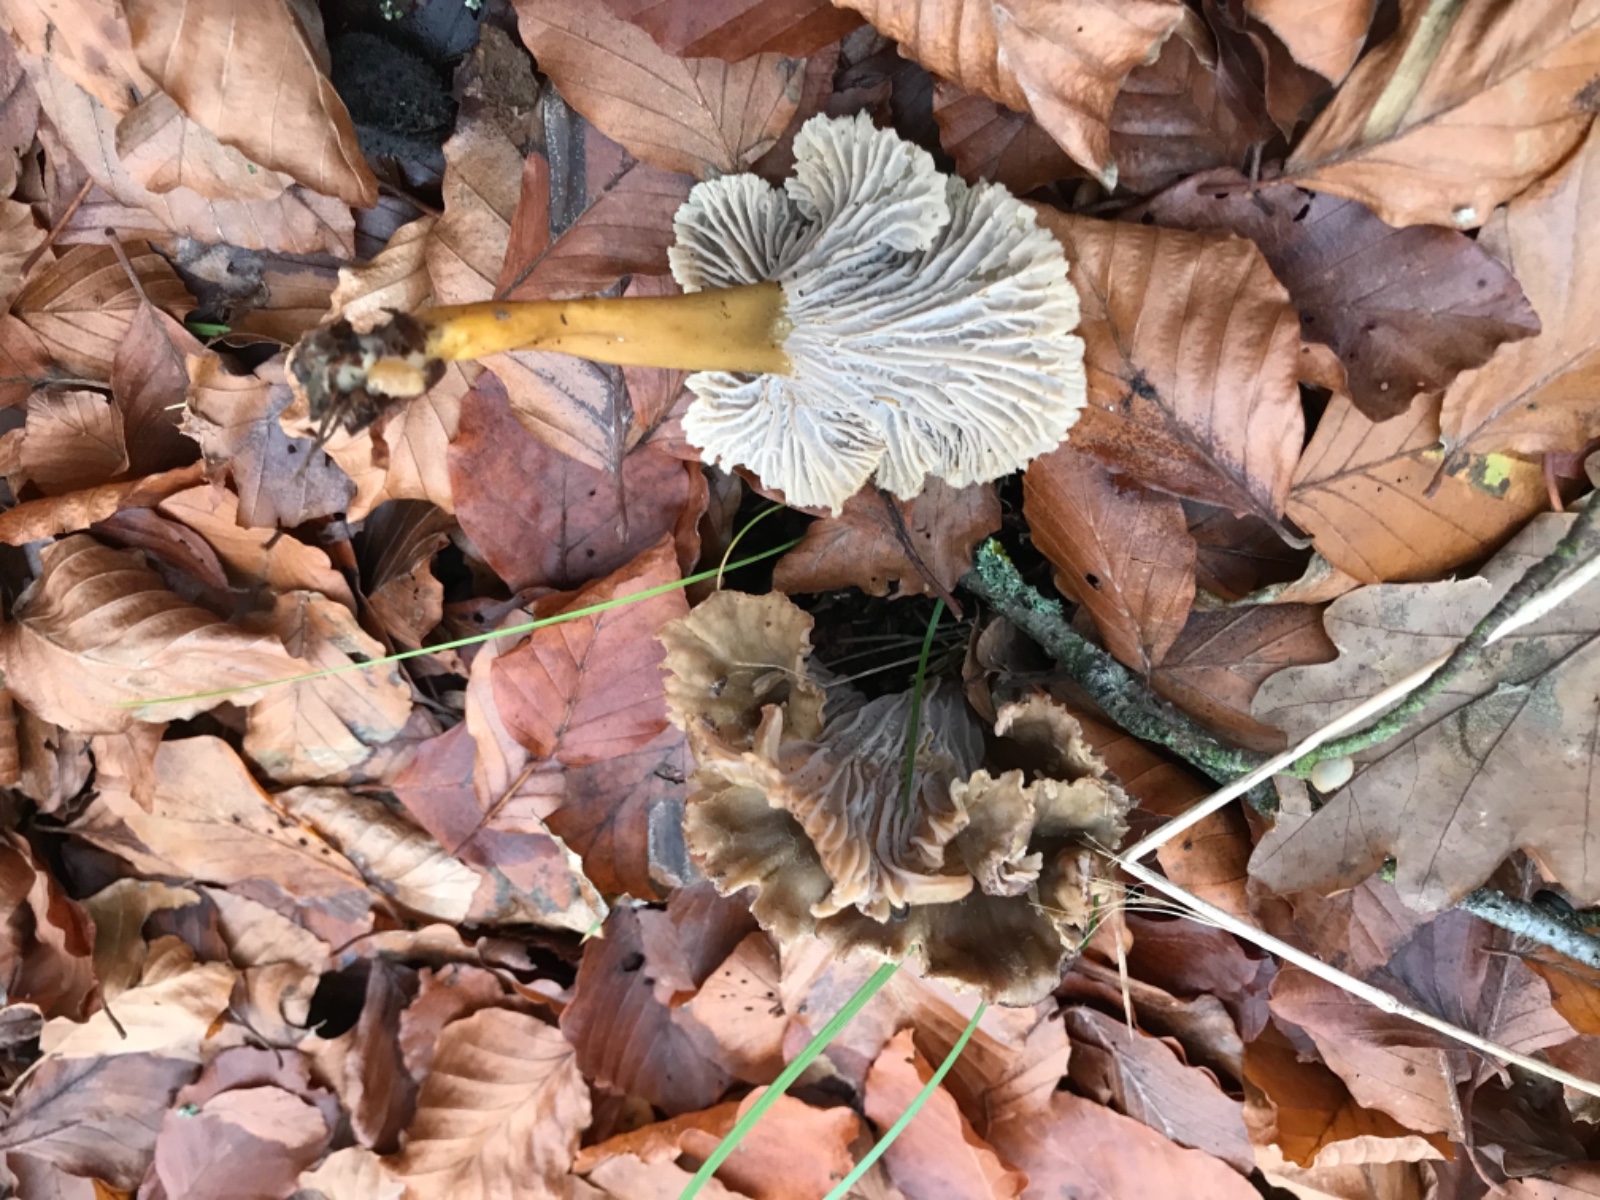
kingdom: Fungi
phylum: Basidiomycota
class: Agaricomycetes
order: Cantharellales
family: Hydnaceae
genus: Craterellus
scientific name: Craterellus tubaeformis
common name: tragt-kantarel
